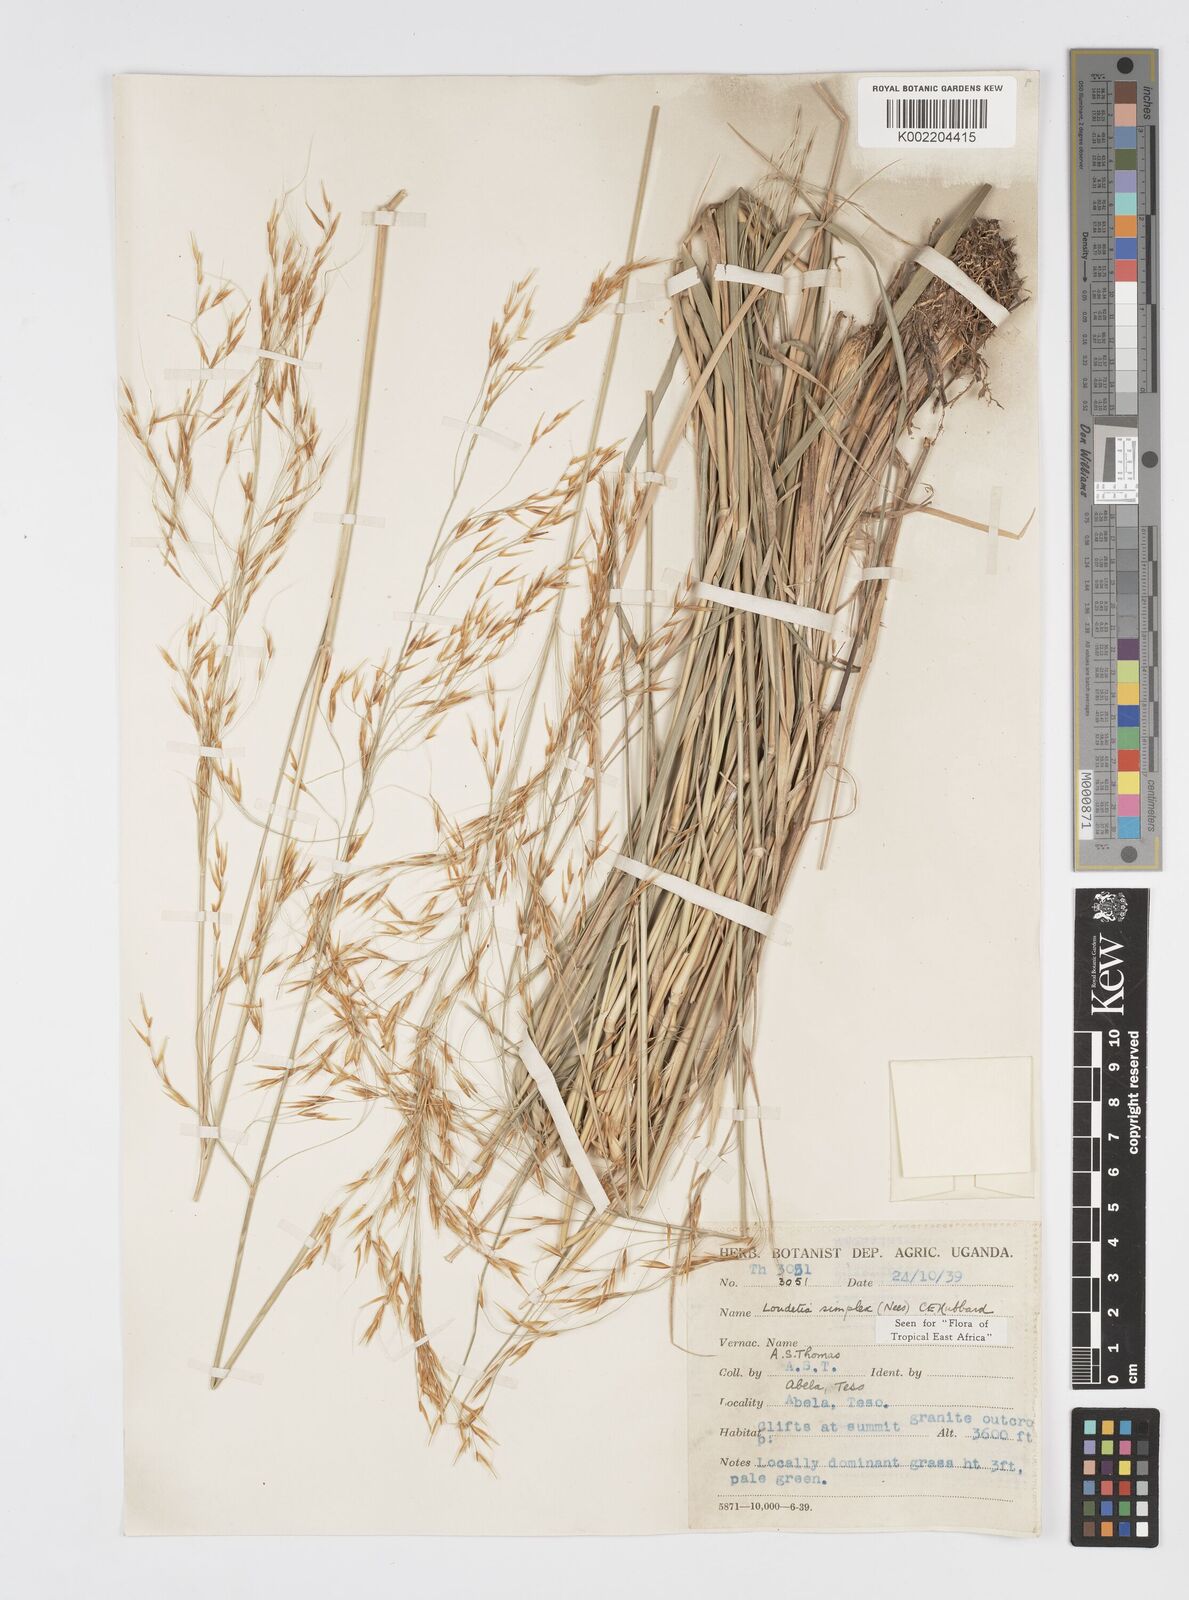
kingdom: Plantae
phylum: Tracheophyta
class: Liliopsida
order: Poales
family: Poaceae
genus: Loudetia
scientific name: Loudetia simplex
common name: Common russet grass
